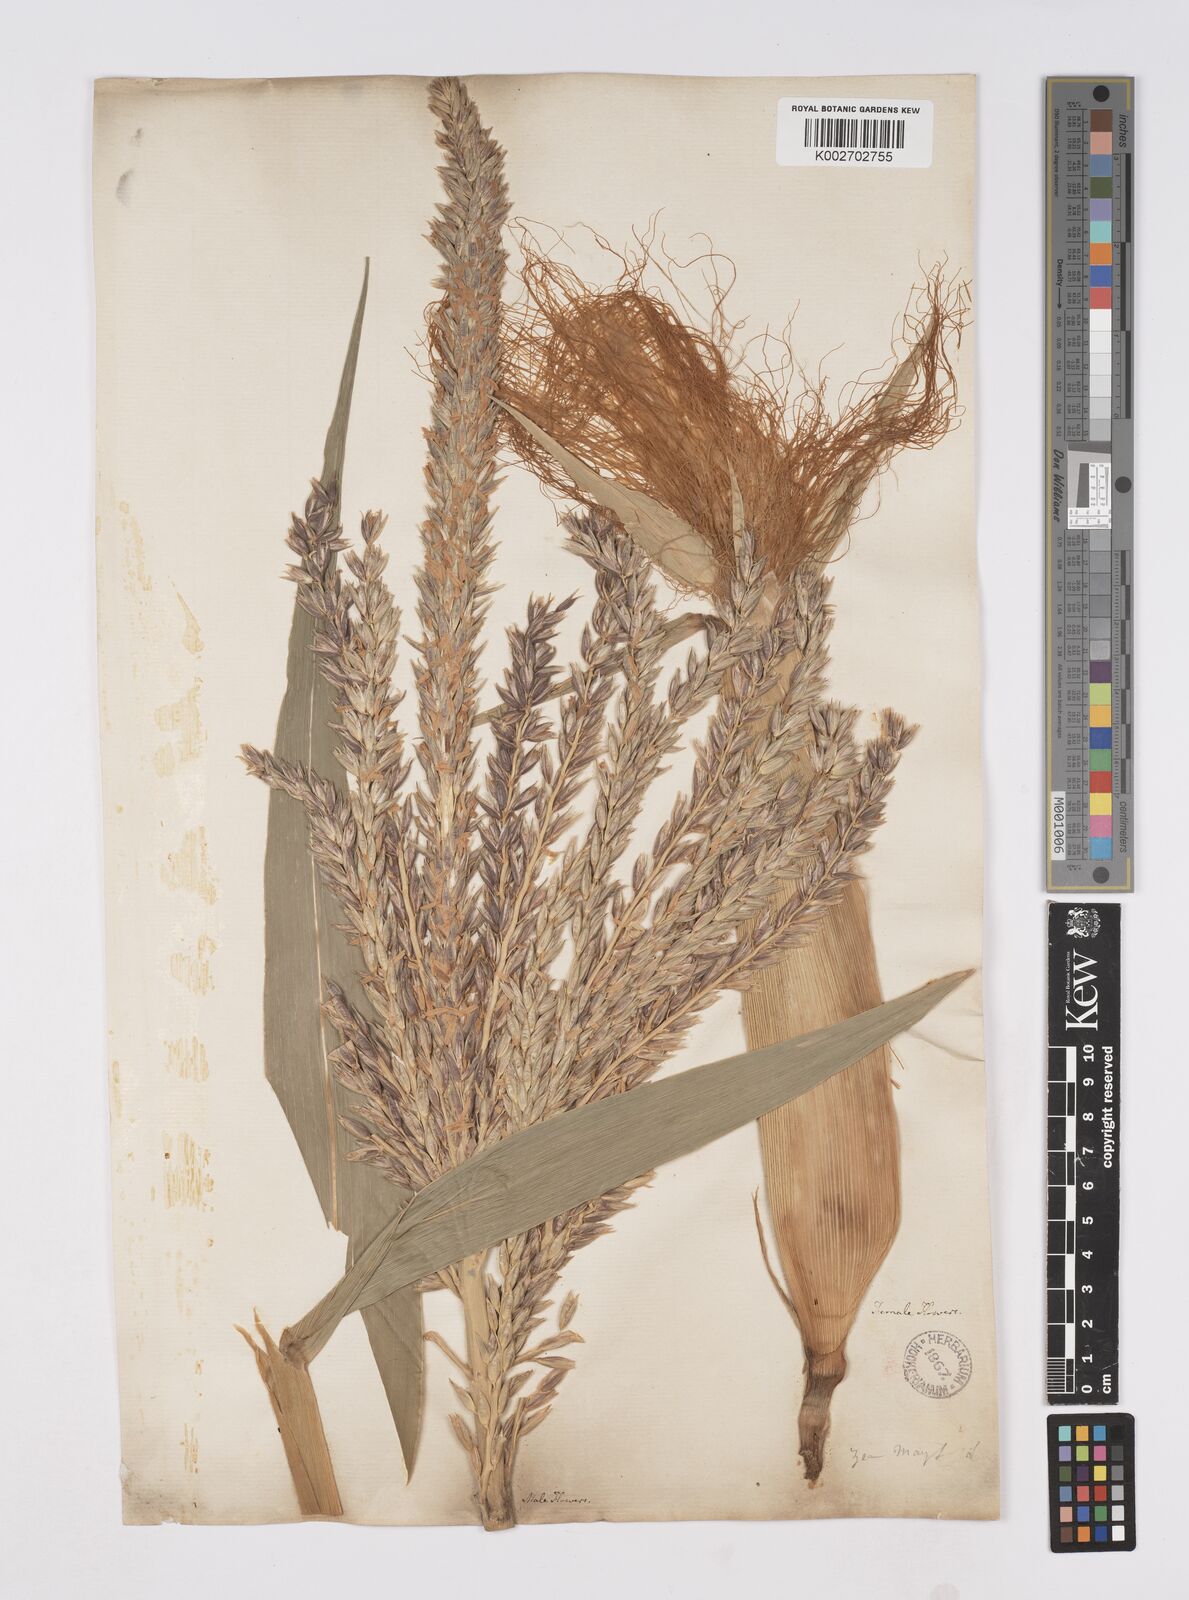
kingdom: Plantae
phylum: Tracheophyta
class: Liliopsida
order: Poales
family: Poaceae
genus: Zea
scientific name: Zea mays
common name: Maize
